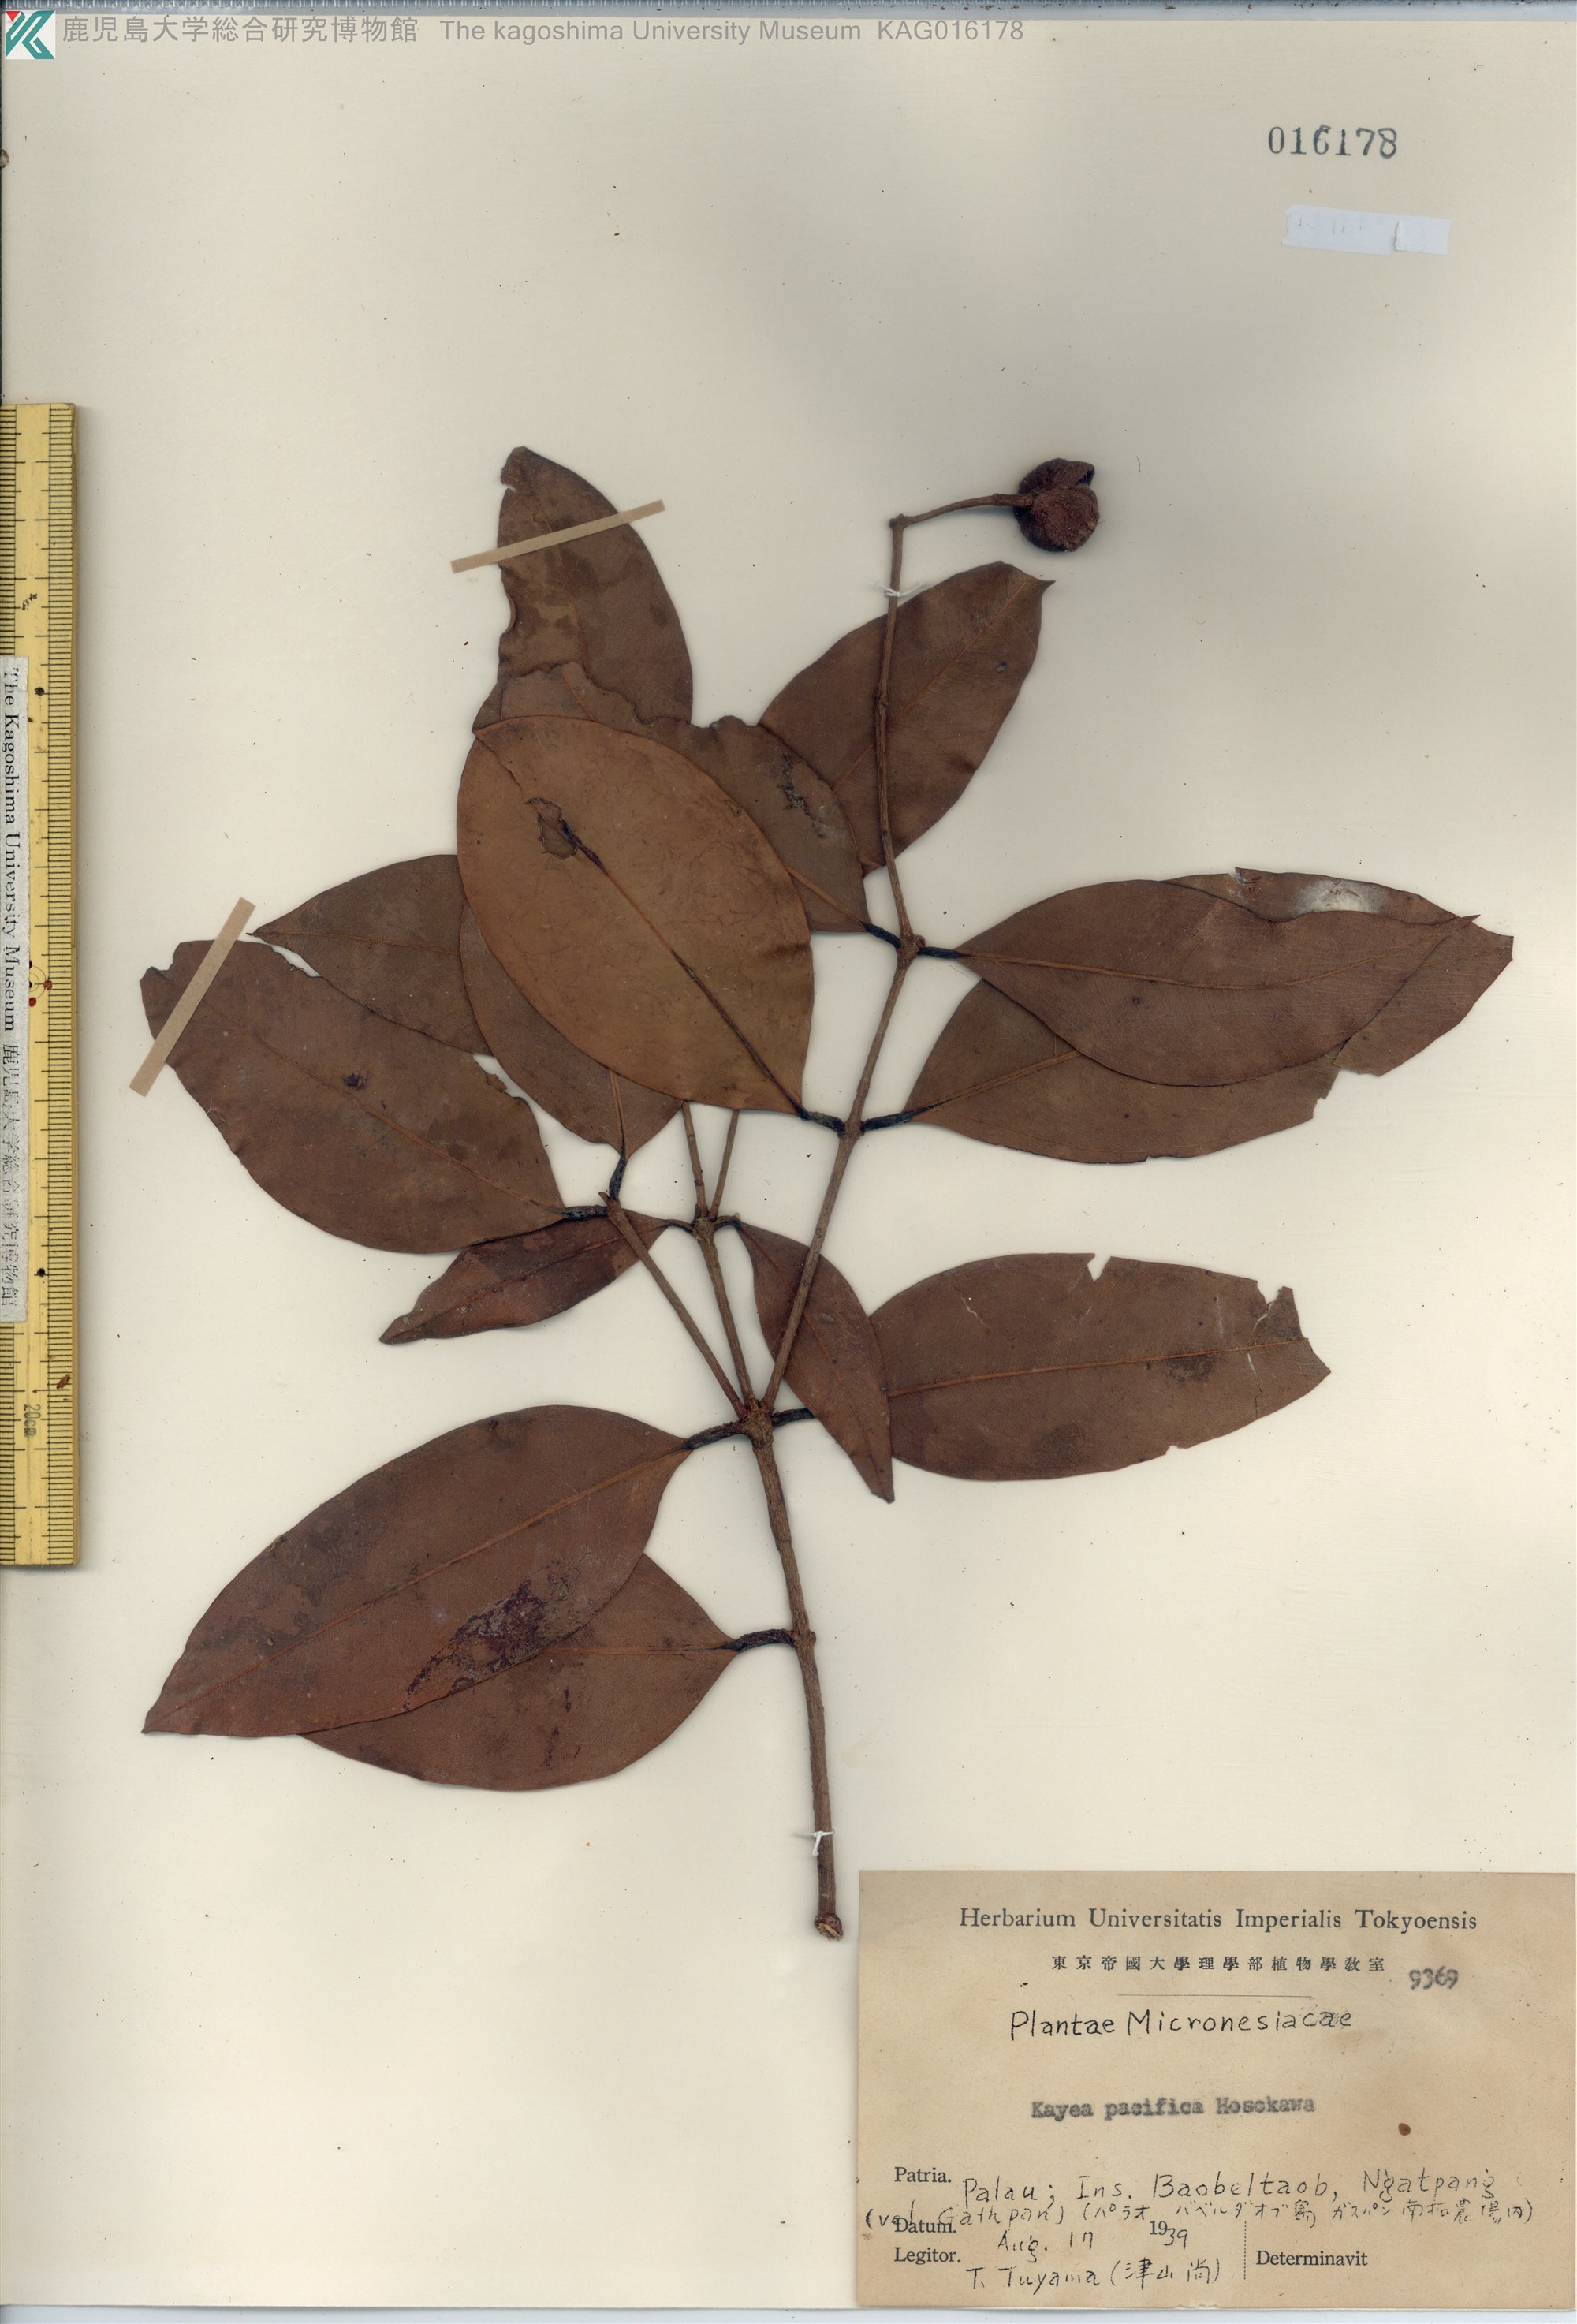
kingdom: Plantae
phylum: Tracheophyta
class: Magnoliopsida
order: Malpighiales
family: Calophyllaceae
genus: Kayea
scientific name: Kayea pacifica
